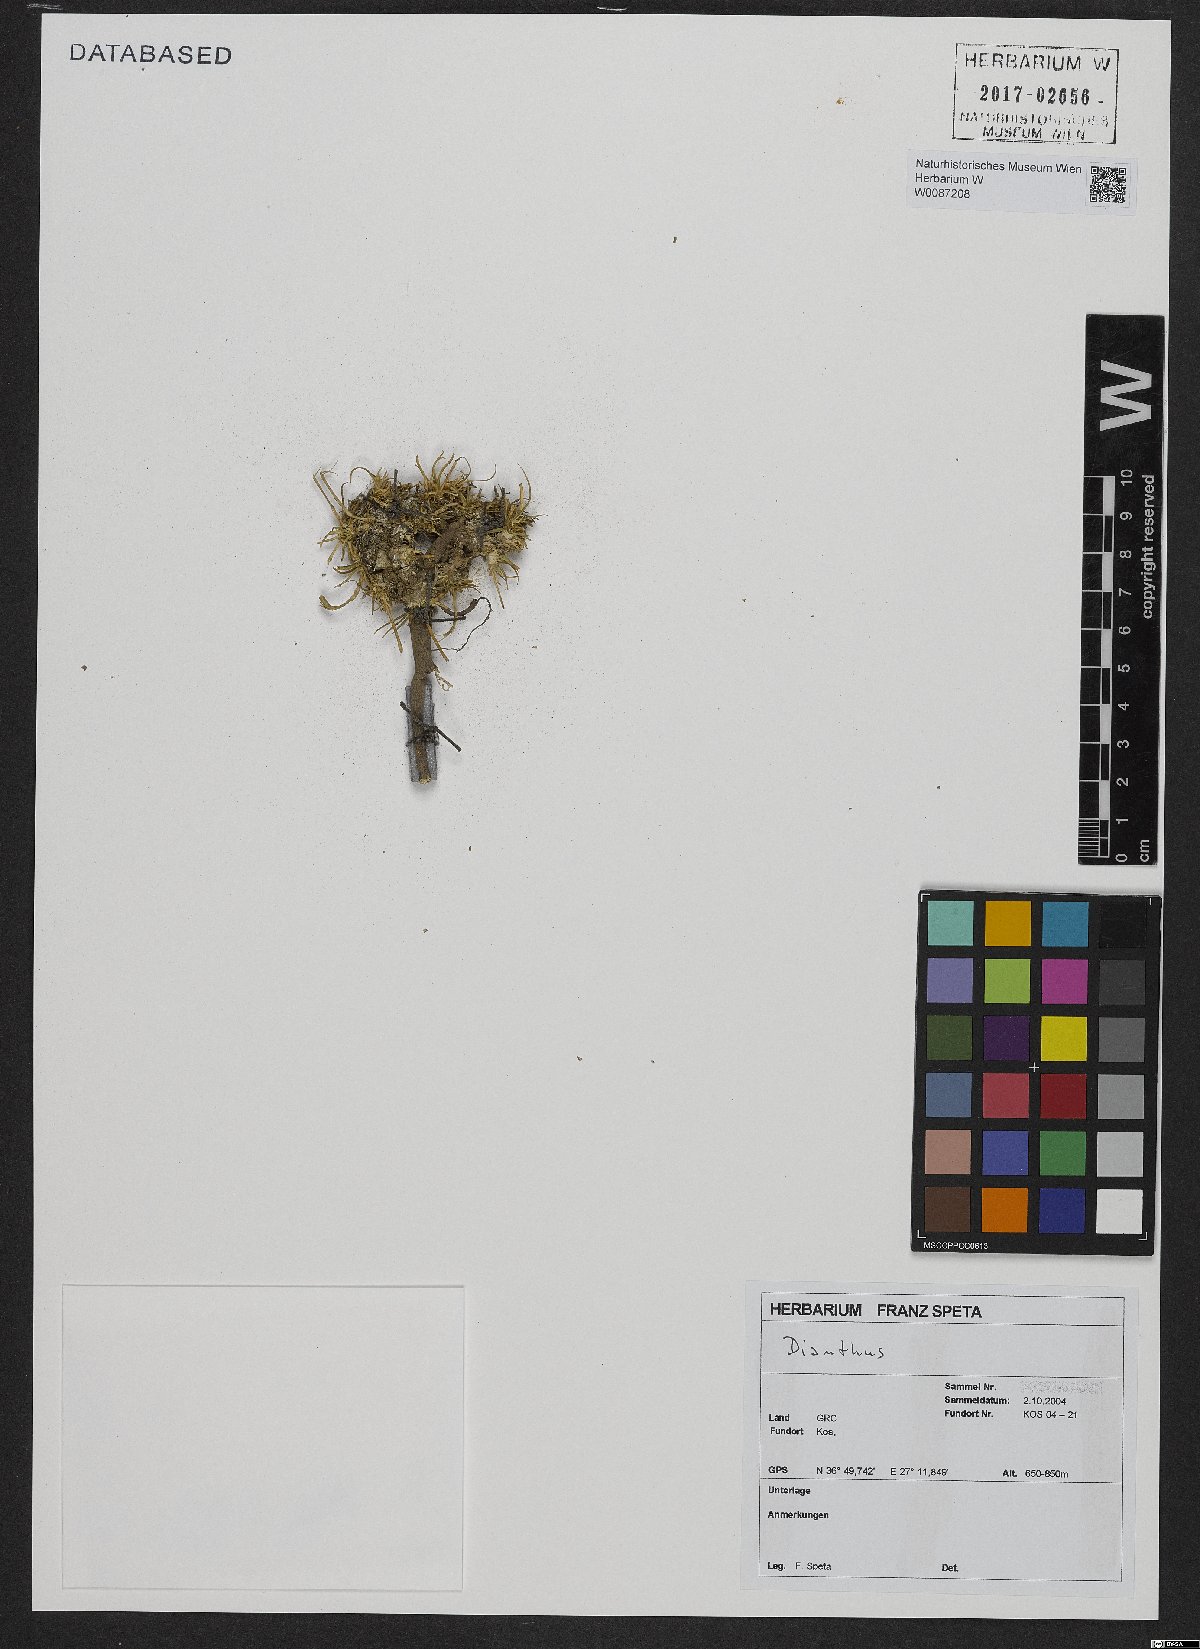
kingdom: Plantae
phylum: Tracheophyta
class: Magnoliopsida
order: Caryophyllales
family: Caryophyllaceae
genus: Dianthus
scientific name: Dianthus
